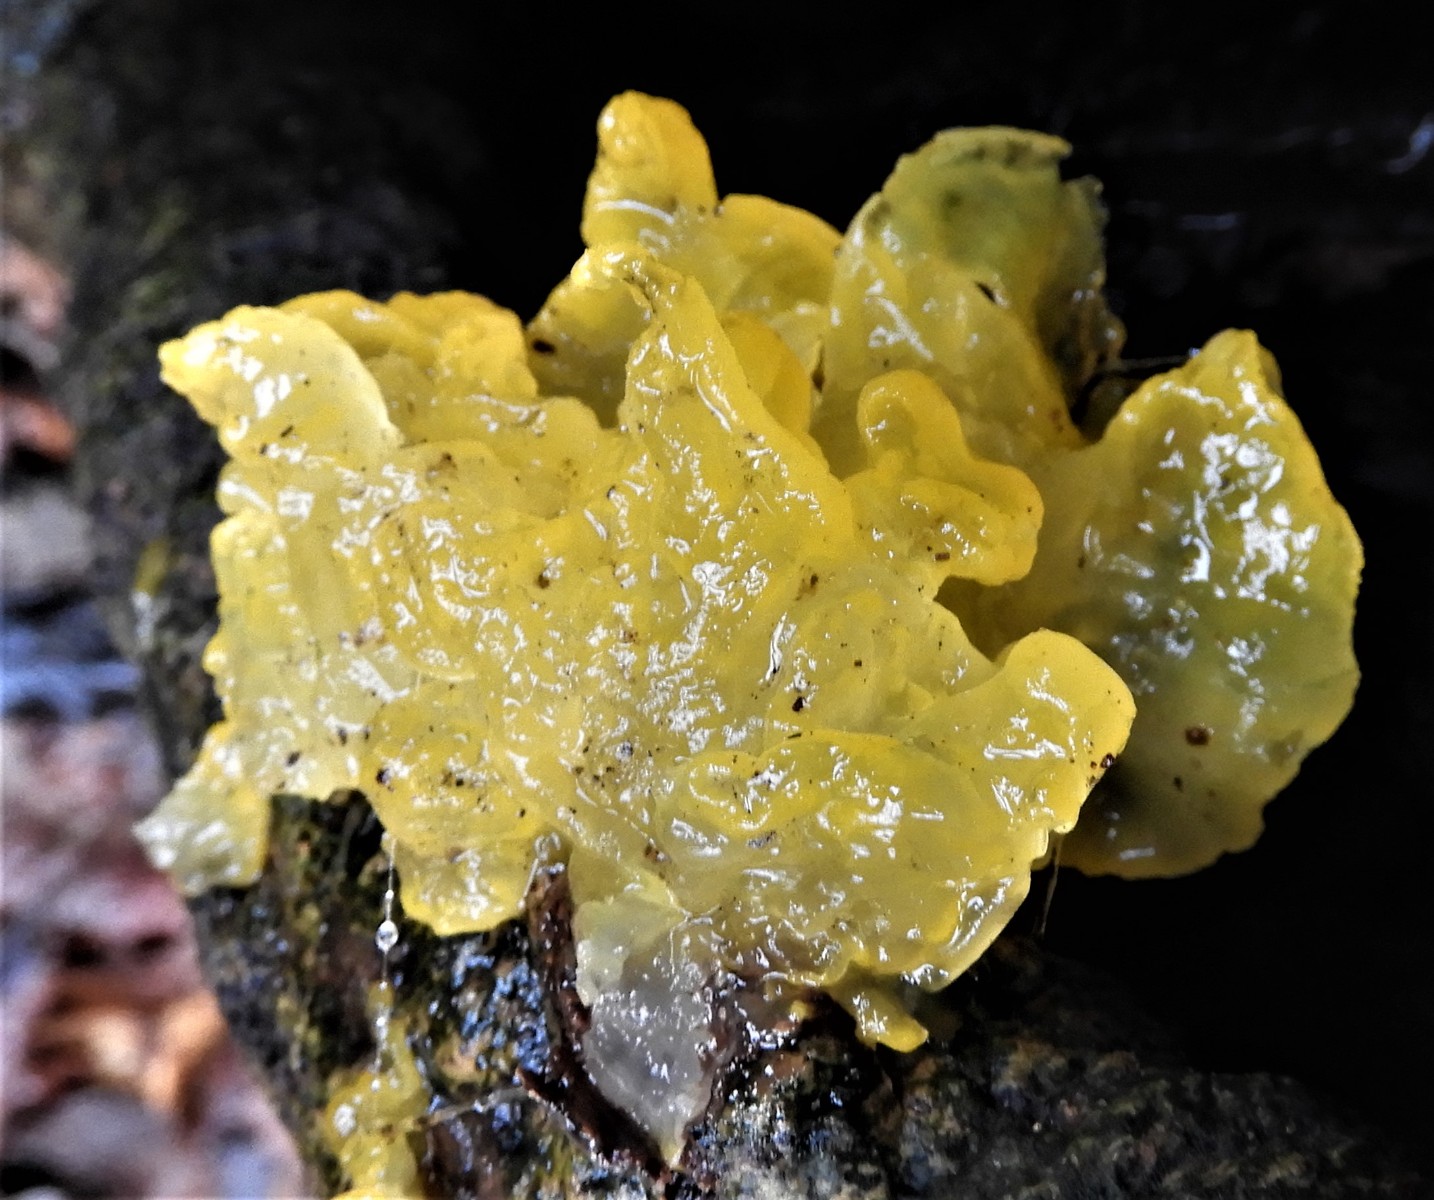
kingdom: Fungi
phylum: Basidiomycota
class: Tremellomycetes
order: Tremellales
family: Tremellaceae
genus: Tremella
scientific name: Tremella mesenterica
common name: gul bævresvamp
